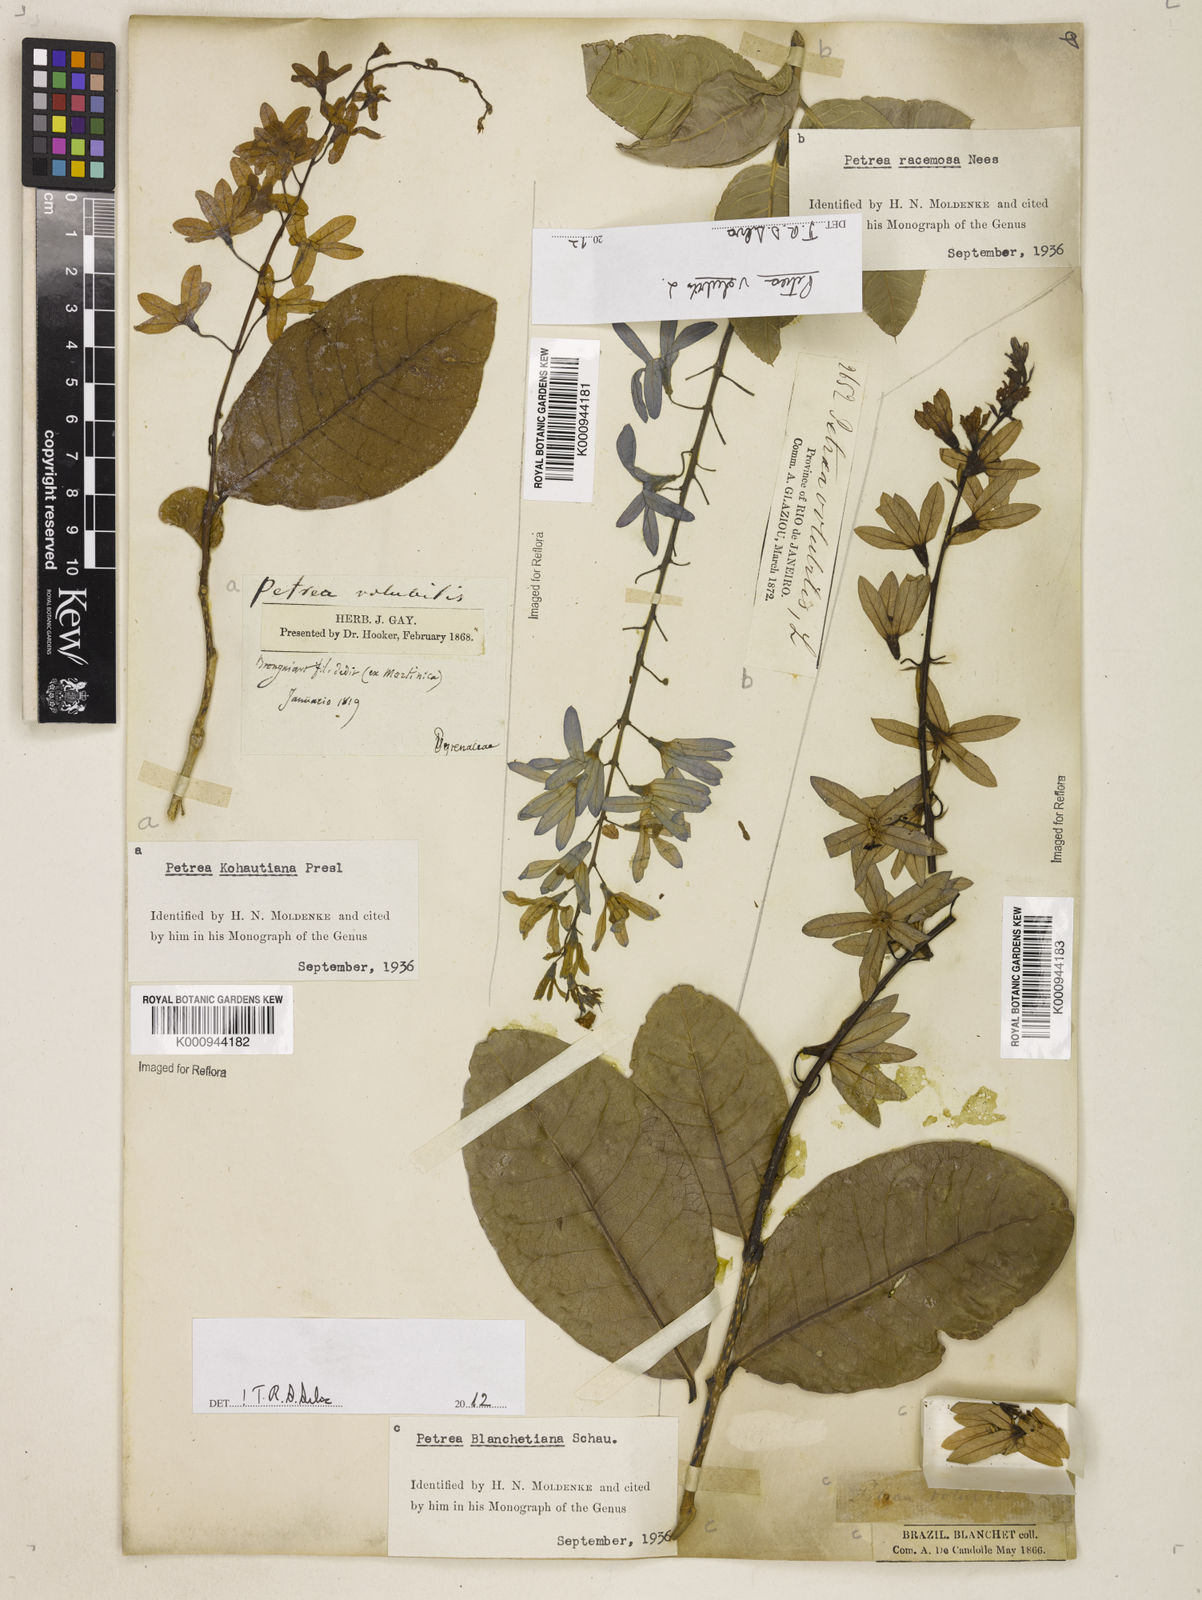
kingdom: Plantae
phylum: Tracheophyta
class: Magnoliopsida
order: Lamiales
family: Verbenaceae
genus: Petrea
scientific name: Petrea bracteata
